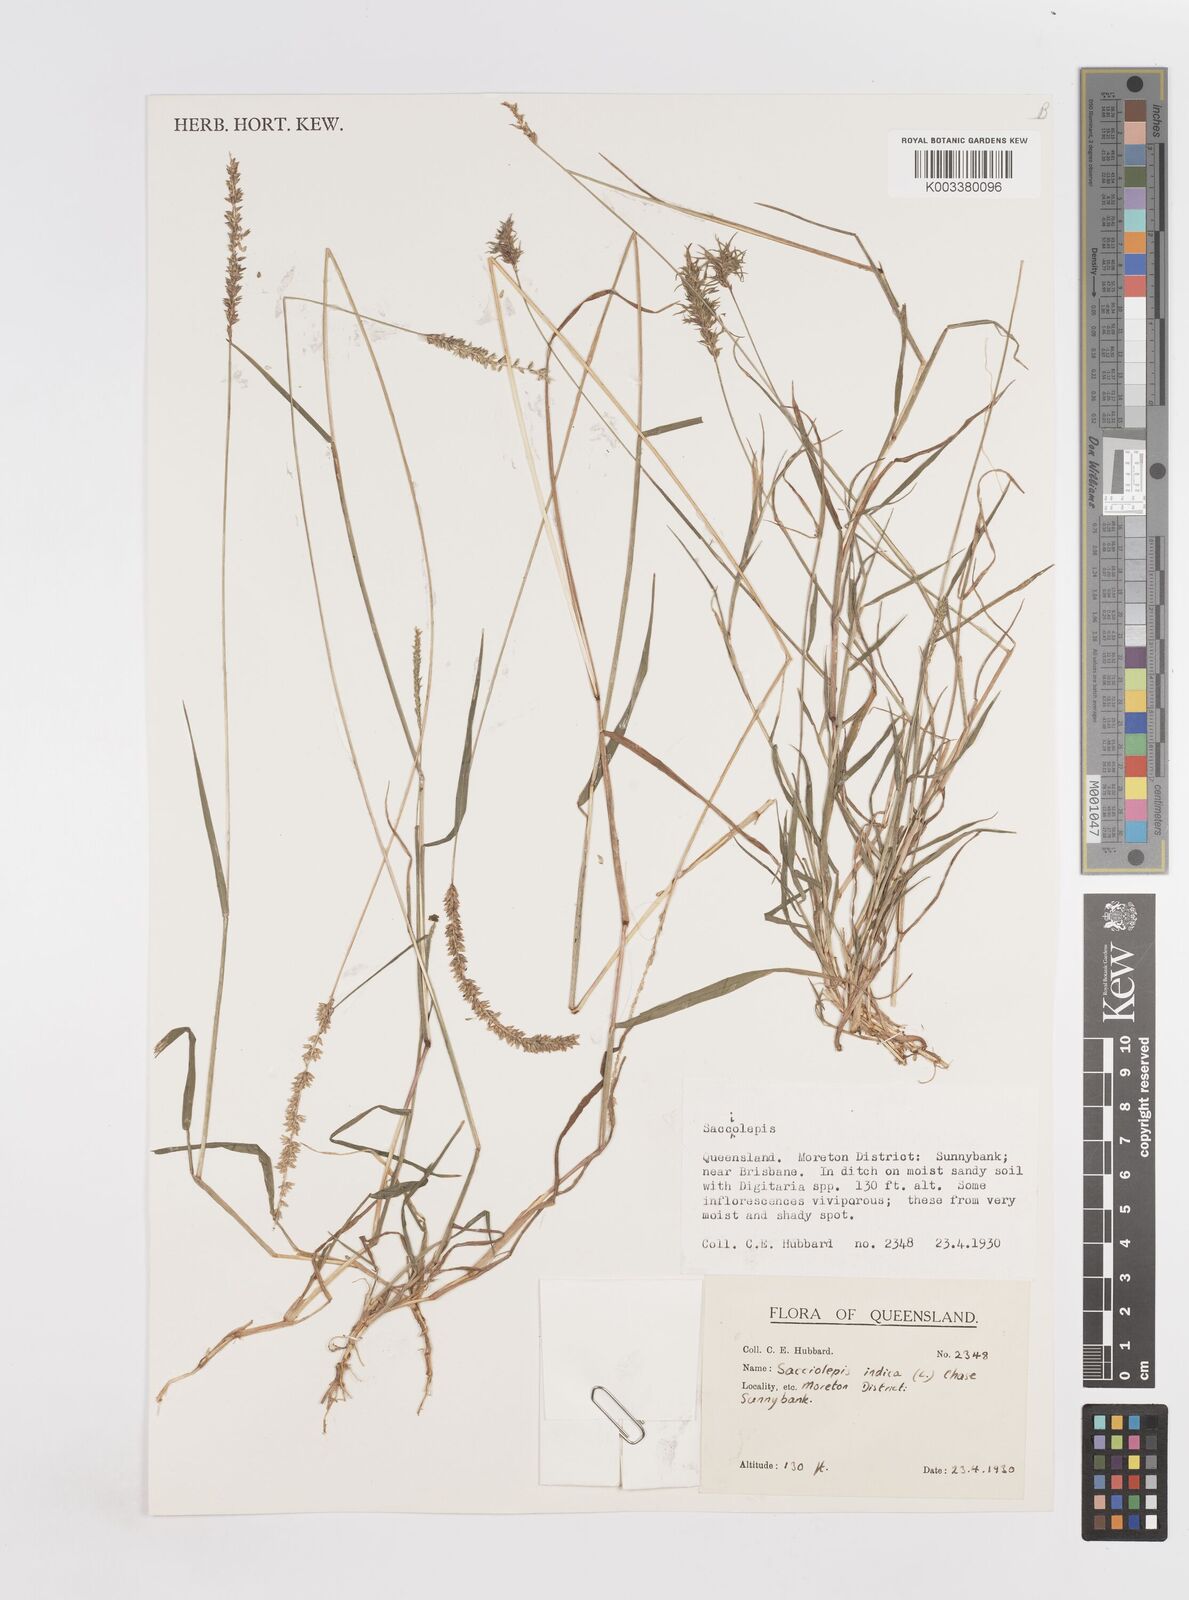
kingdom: Plantae
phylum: Tracheophyta
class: Liliopsida
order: Poales
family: Poaceae
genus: Sacciolepis
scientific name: Sacciolepis indica
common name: Glenwoodgrass
